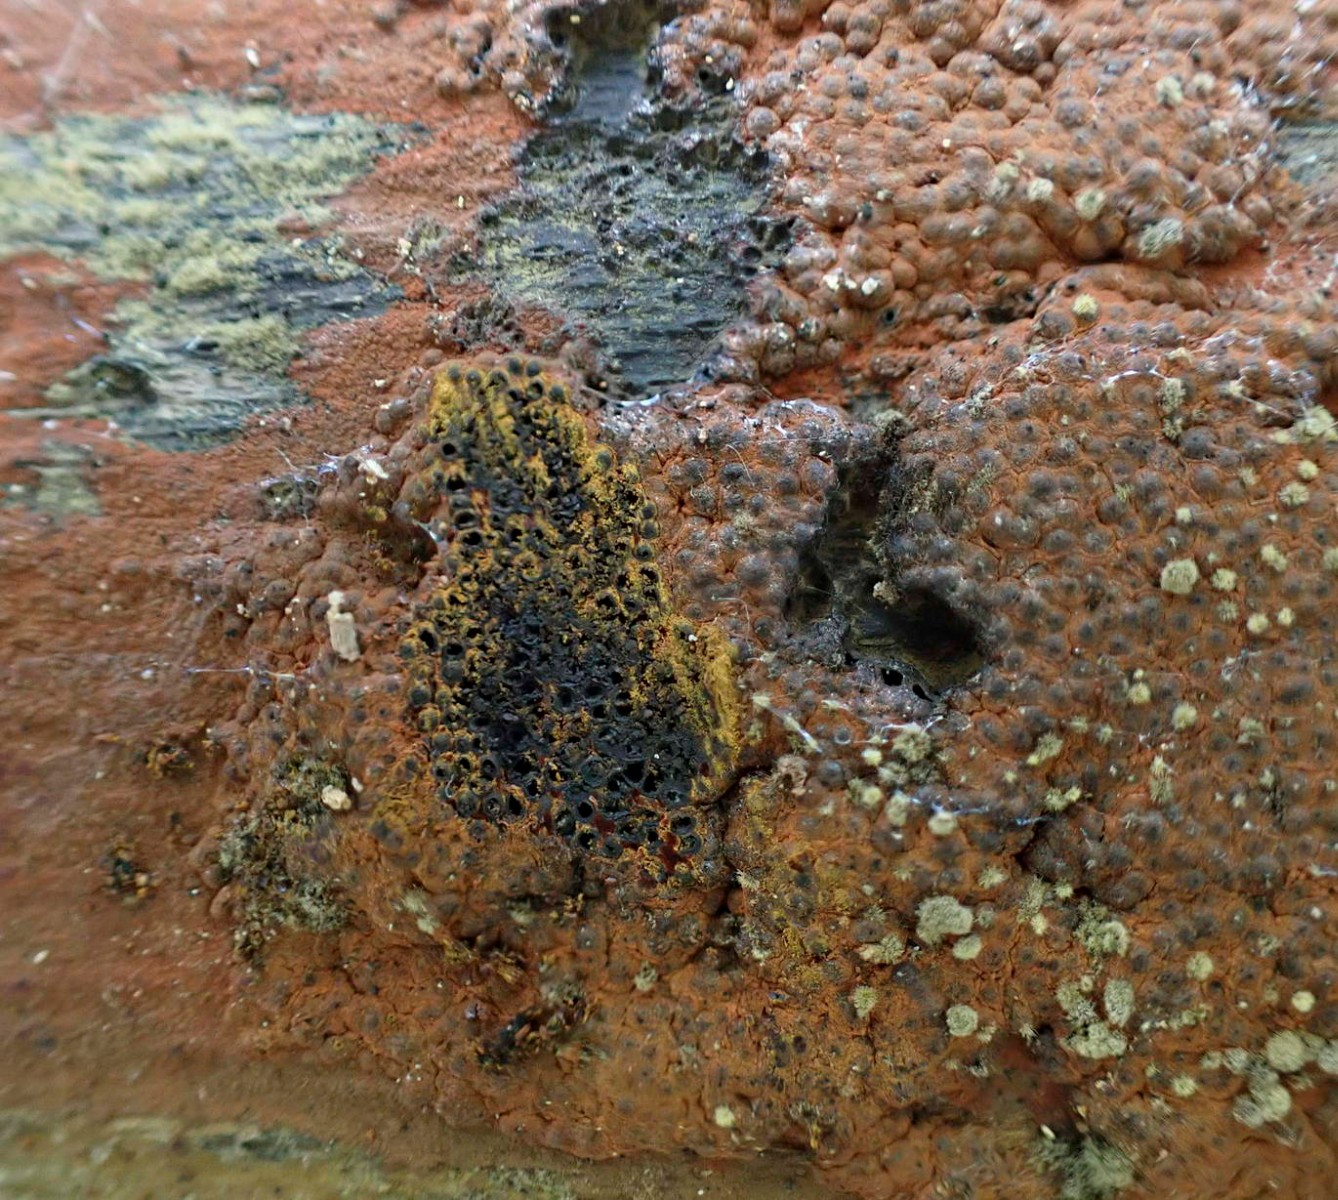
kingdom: Fungi
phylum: Ascomycota
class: Sordariomycetes
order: Xylariales
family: Hypoxylaceae
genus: Hypoxylon
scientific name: Hypoxylon rubiginosum
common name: rustfarvet kulbær
